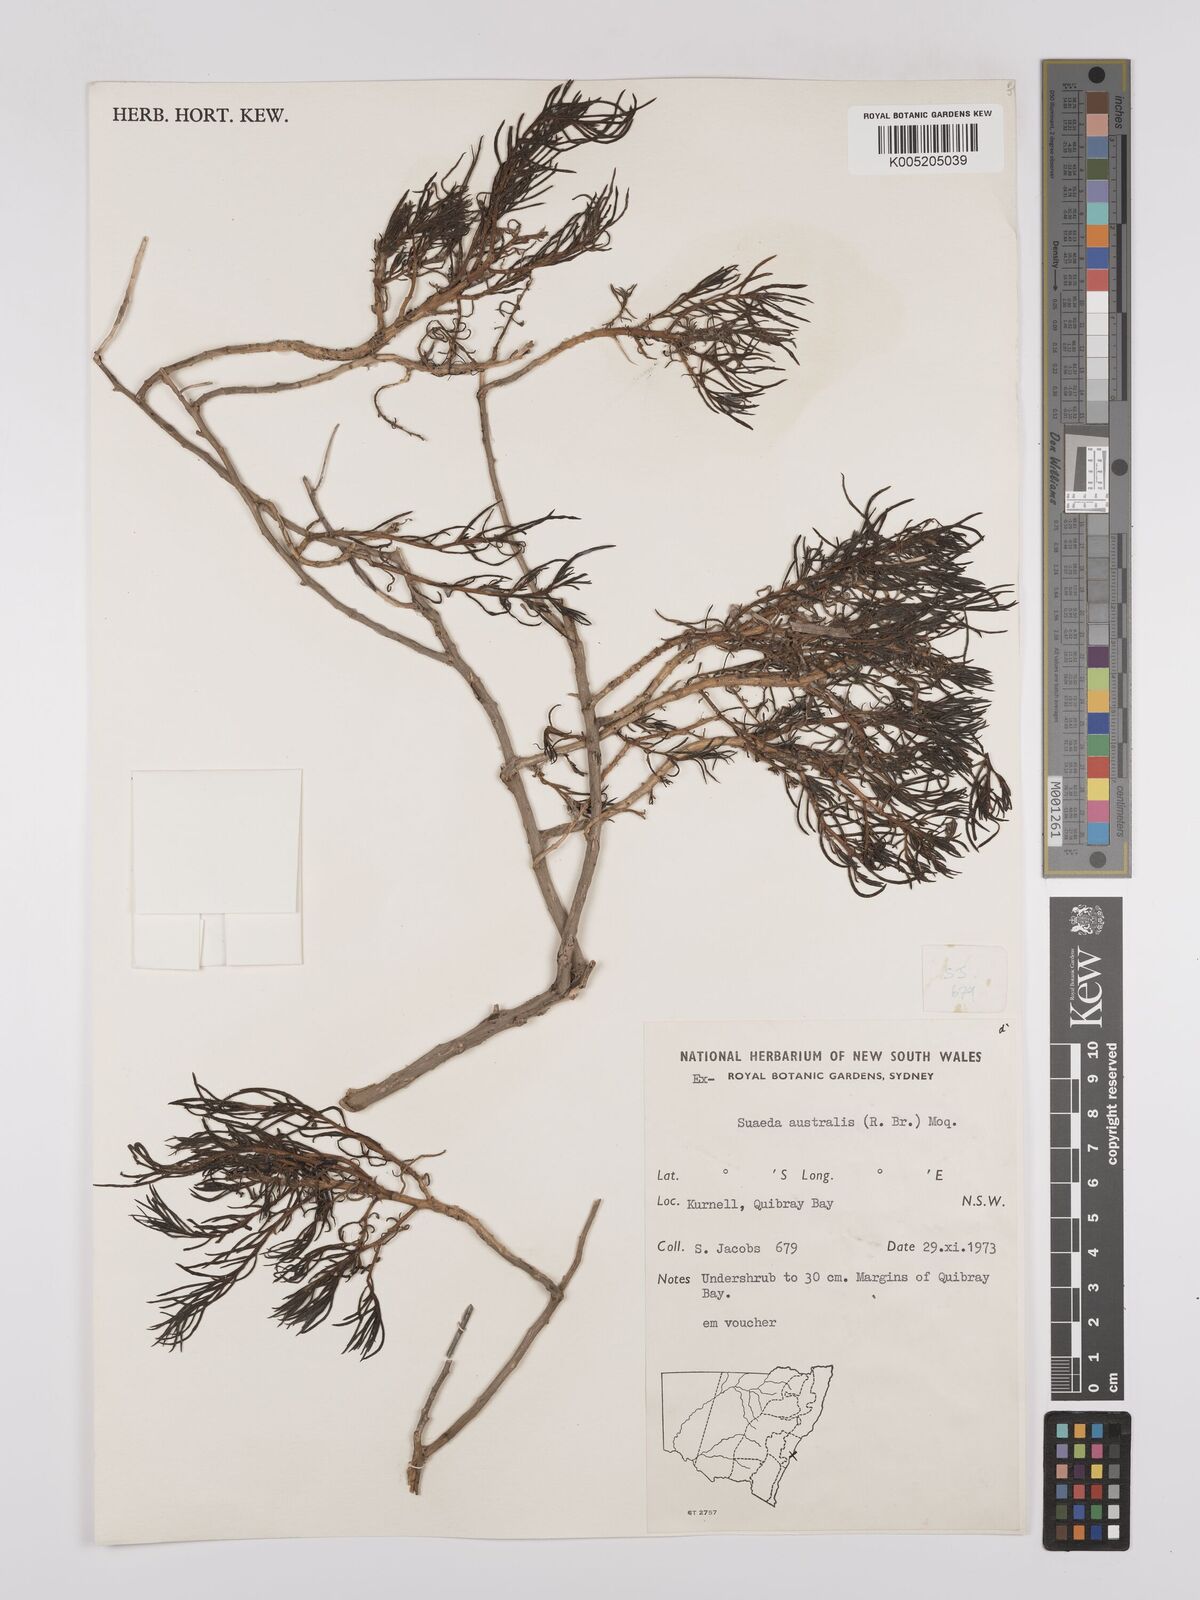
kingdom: Plantae
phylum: Tracheophyta
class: Magnoliopsida
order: Caryophyllales
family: Amaranthaceae
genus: Suaeda
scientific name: Suaeda australis
